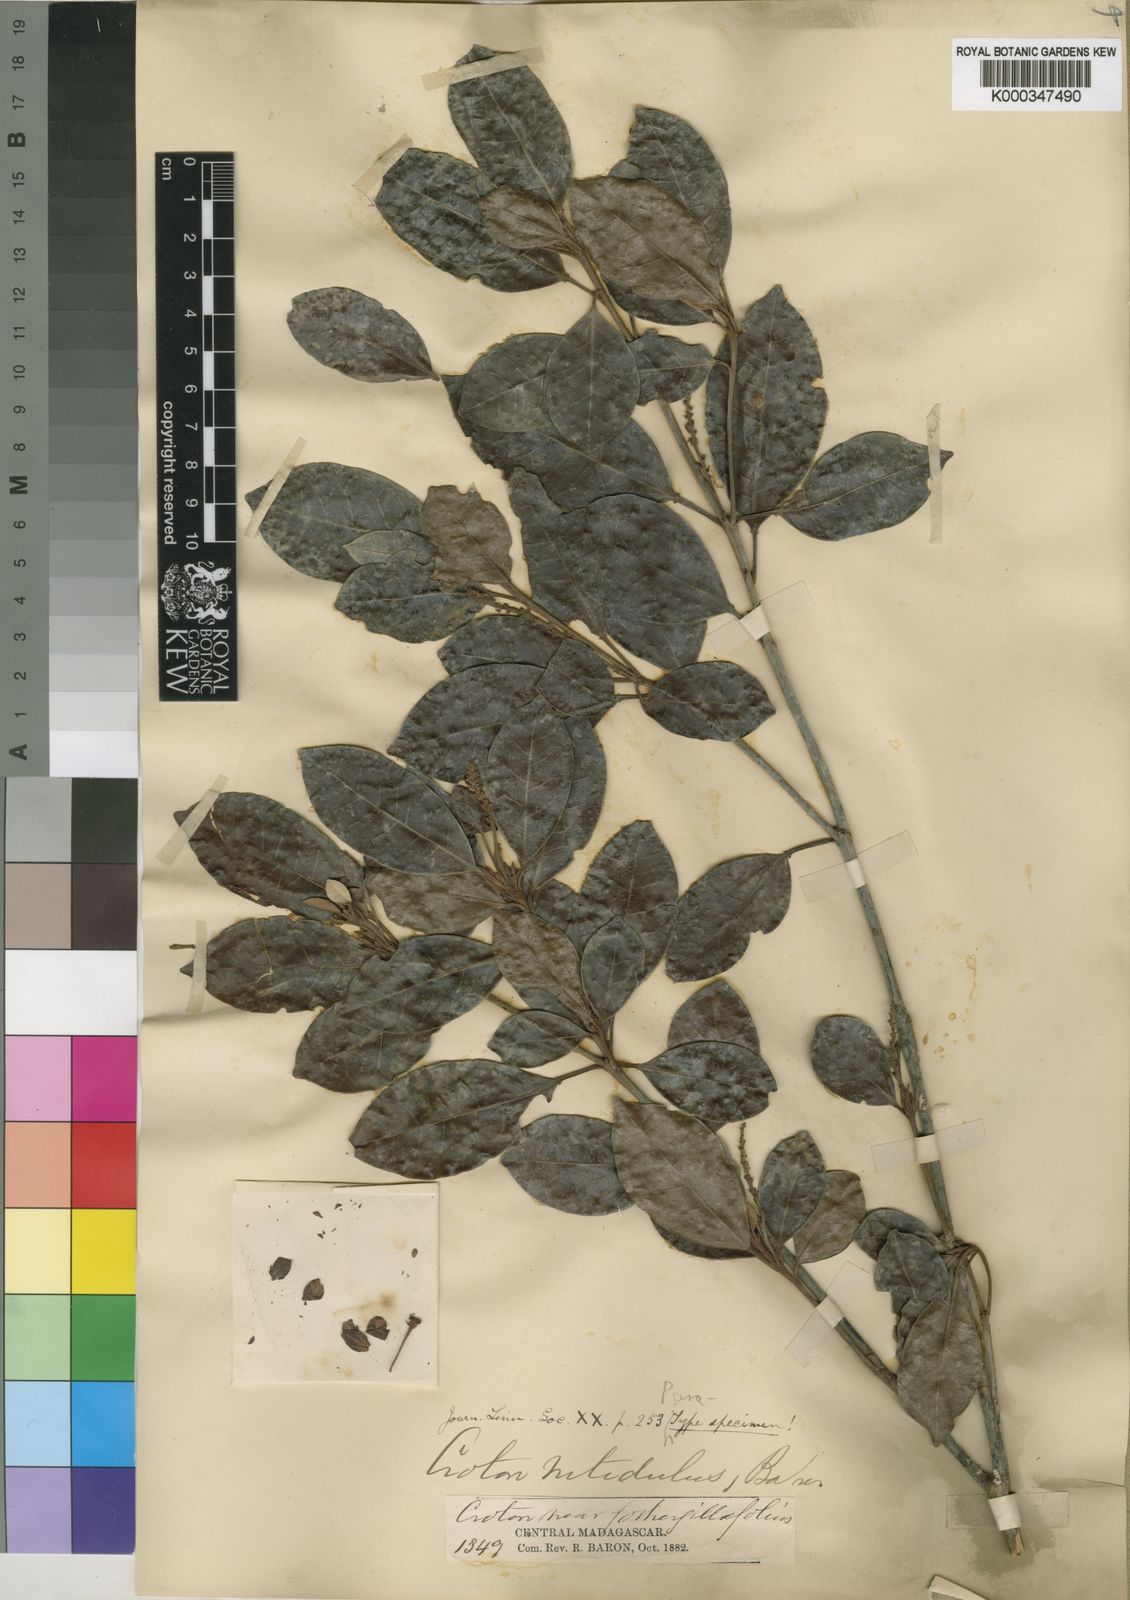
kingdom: Plantae
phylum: Tracheophyta
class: Magnoliopsida
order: Malpighiales
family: Euphorbiaceae
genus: Croton
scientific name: Croton nitidulus
